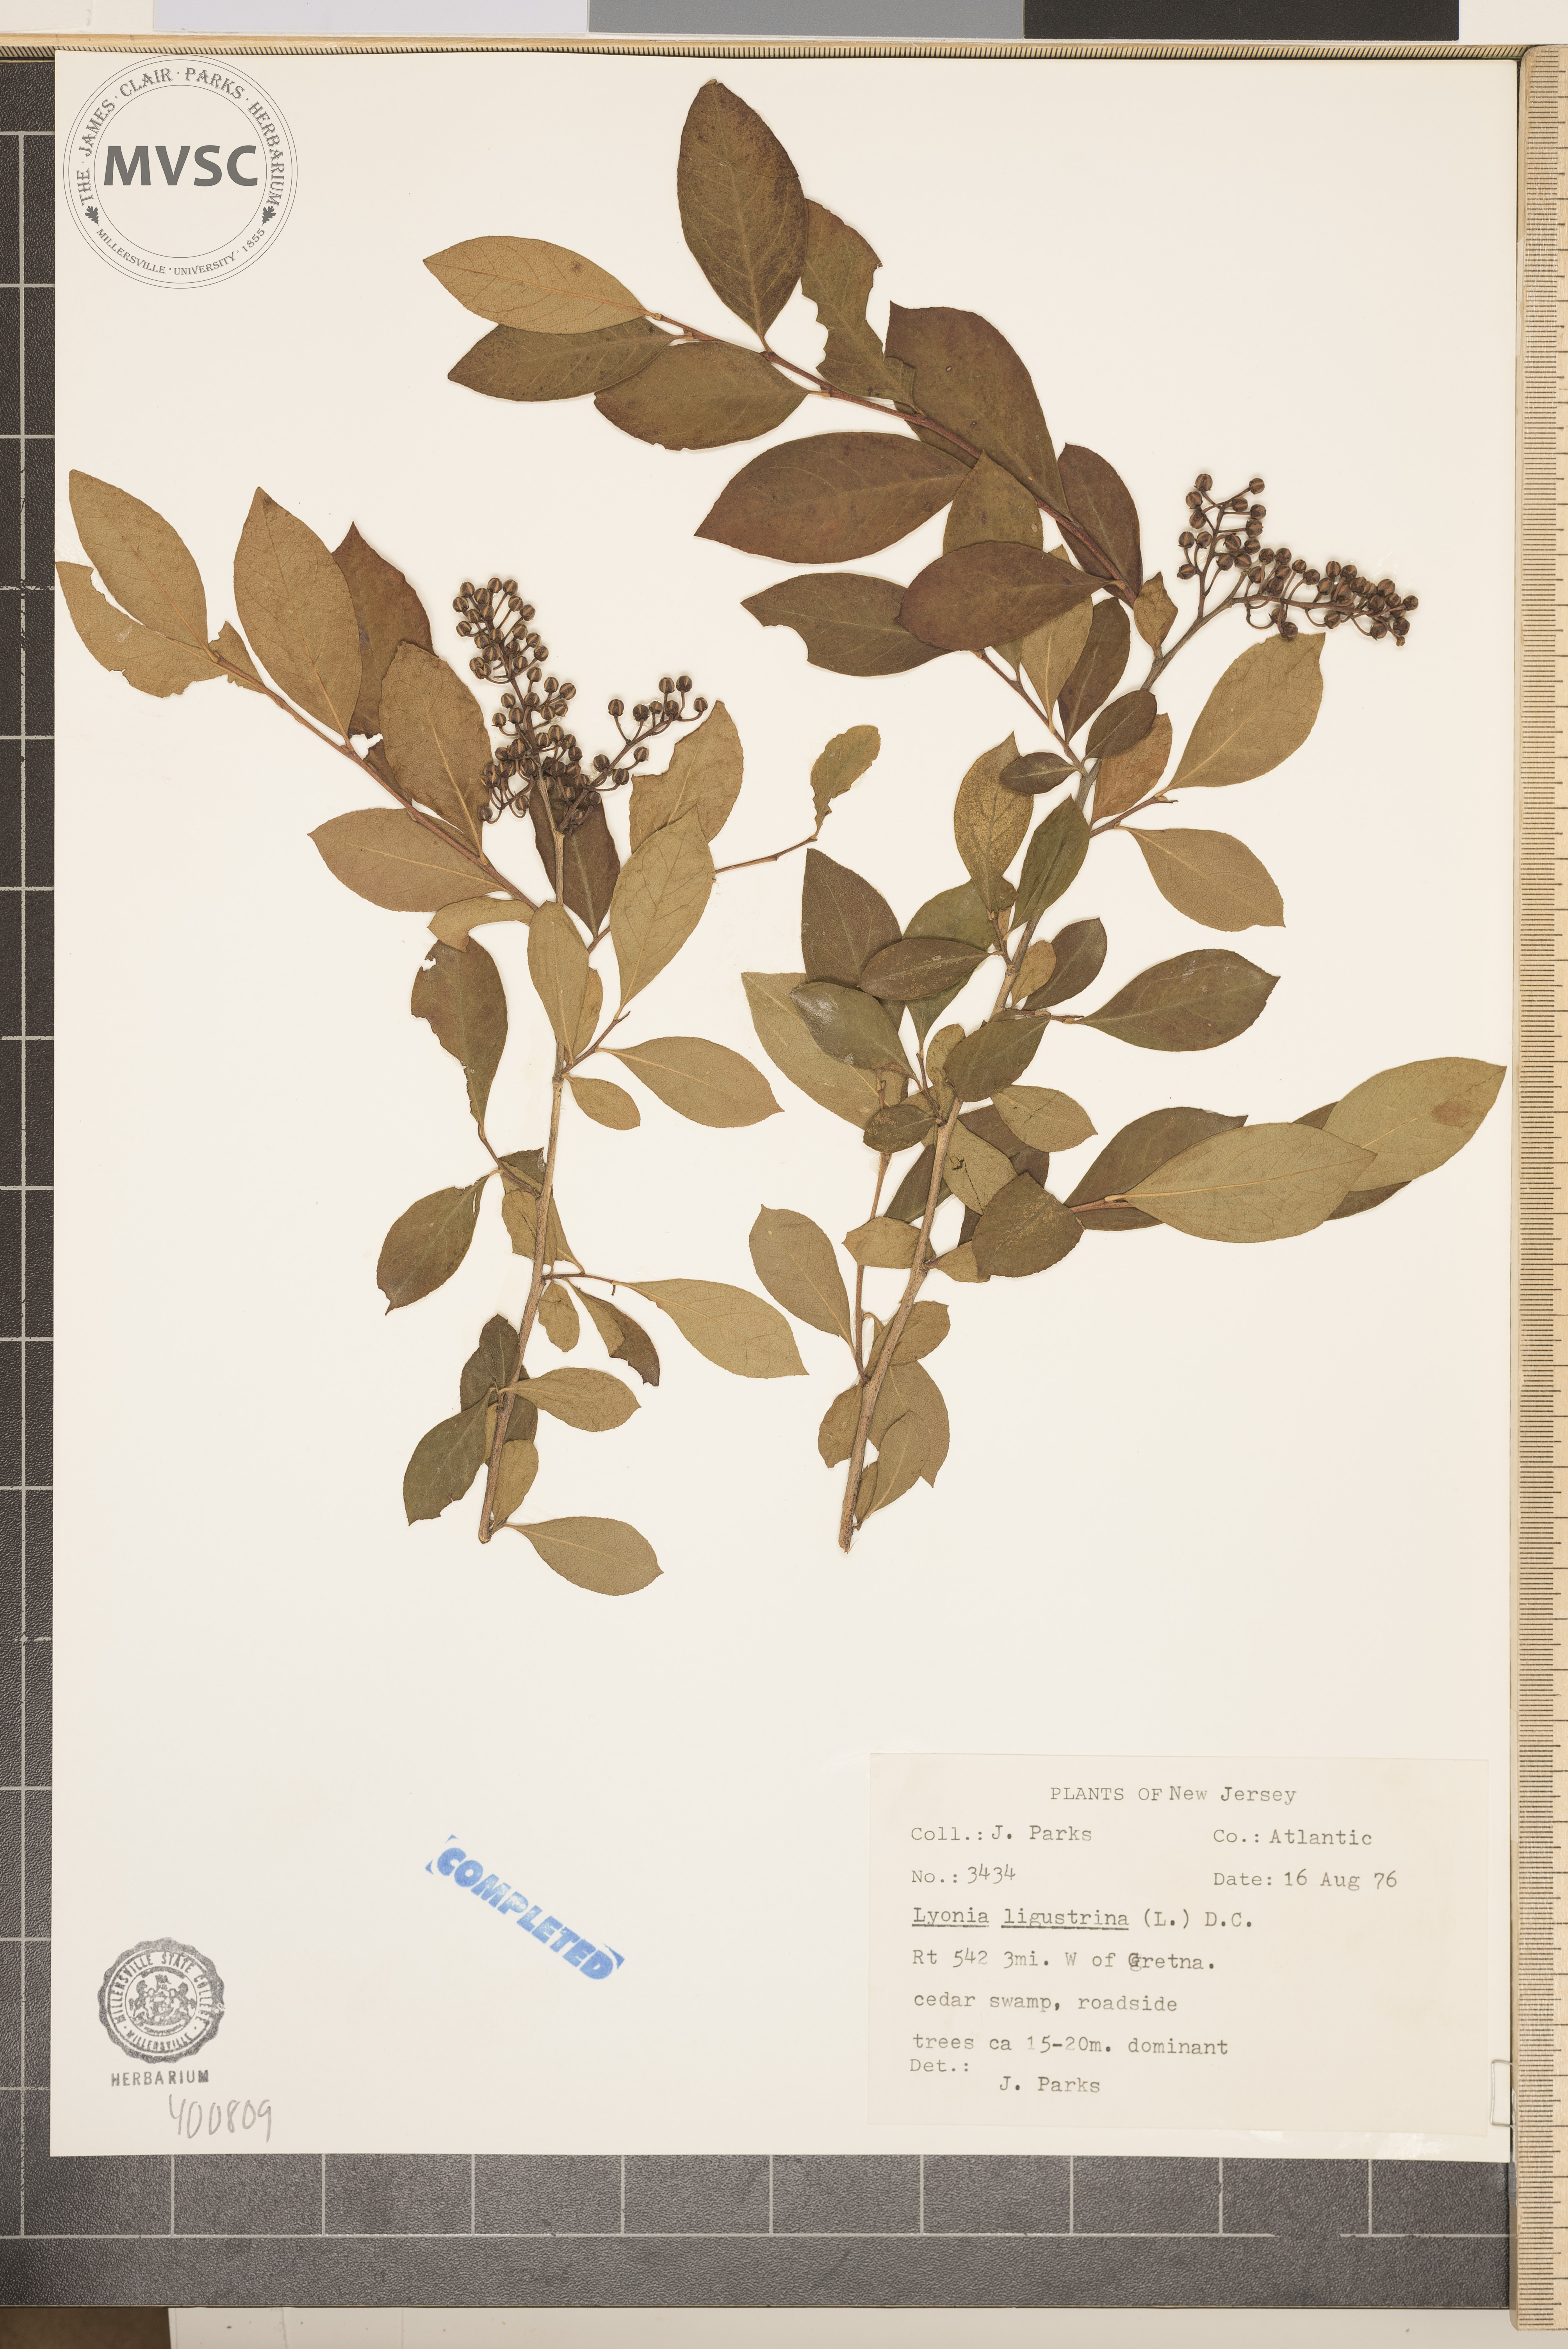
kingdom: Plantae
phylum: Tracheophyta
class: Magnoliopsida
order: Ericales
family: Ericaceae
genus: Lyonia
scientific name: Lyonia ligustrina
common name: Maleberry
